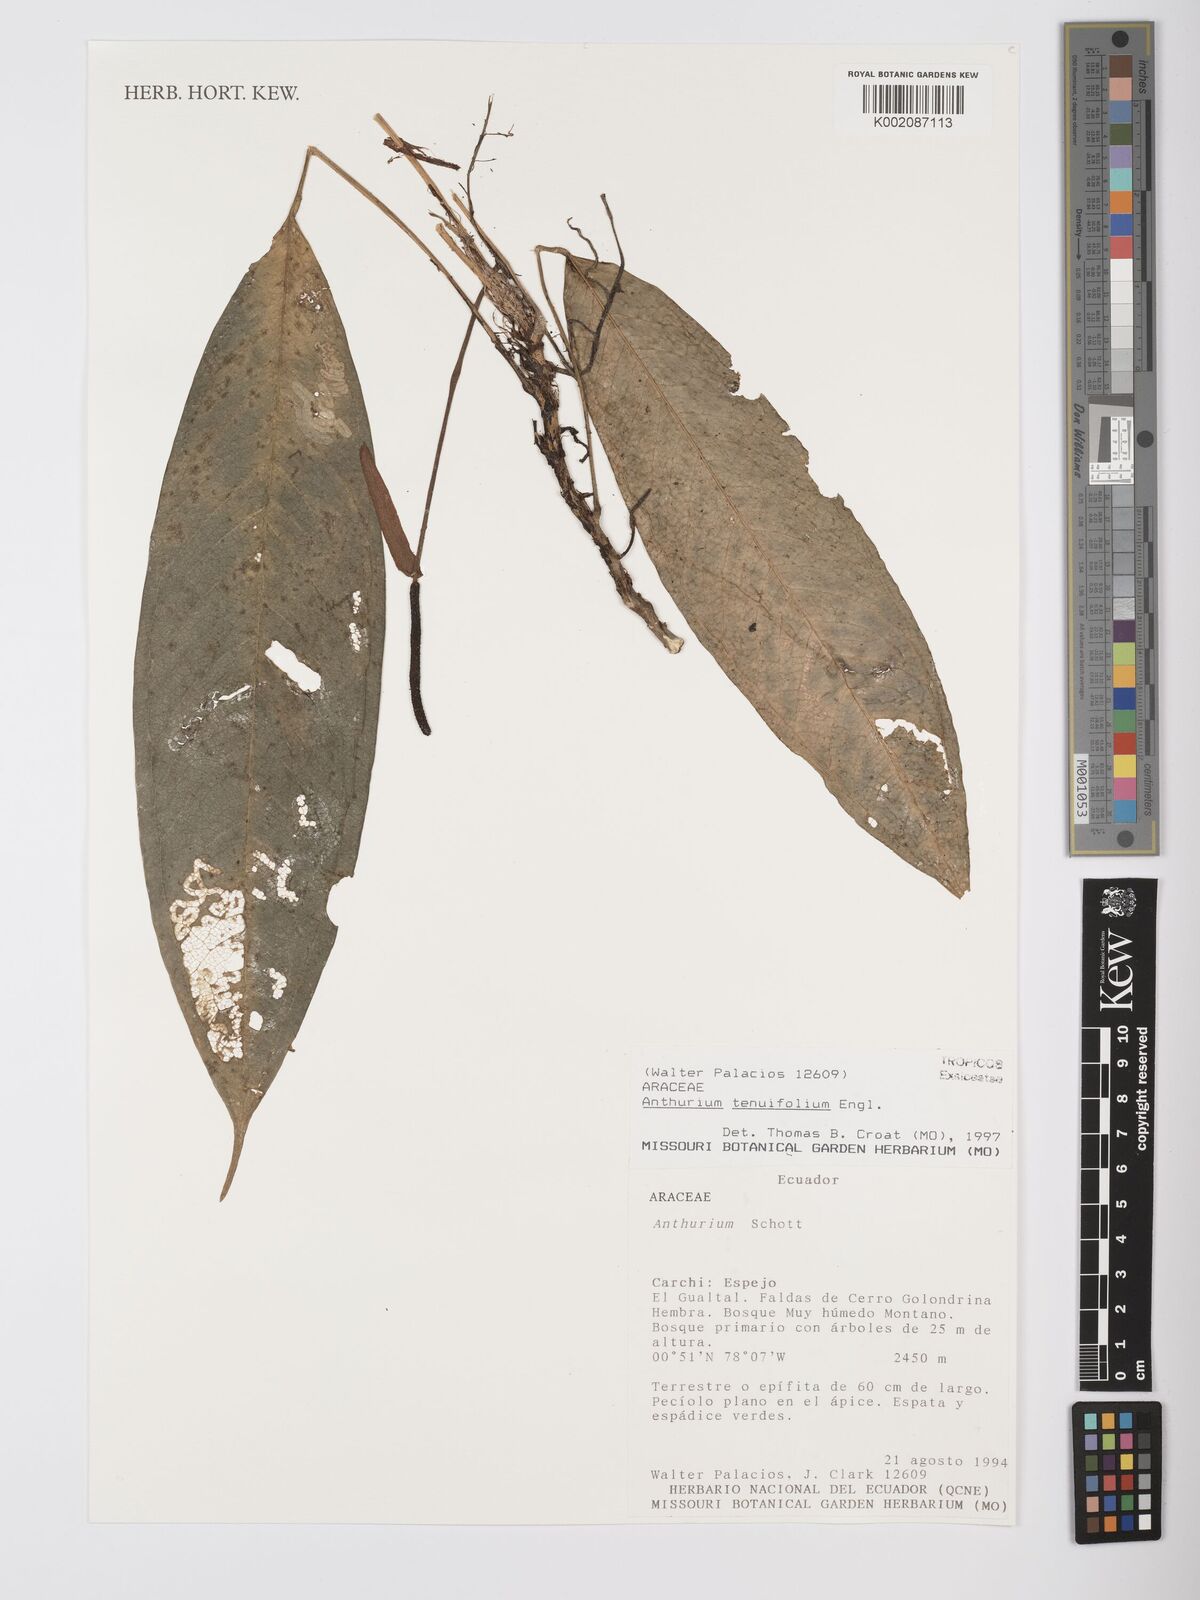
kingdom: Plantae
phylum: Tracheophyta
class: Liliopsida
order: Alismatales
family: Araceae
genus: Anthurium
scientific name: Anthurium tenuifolium
